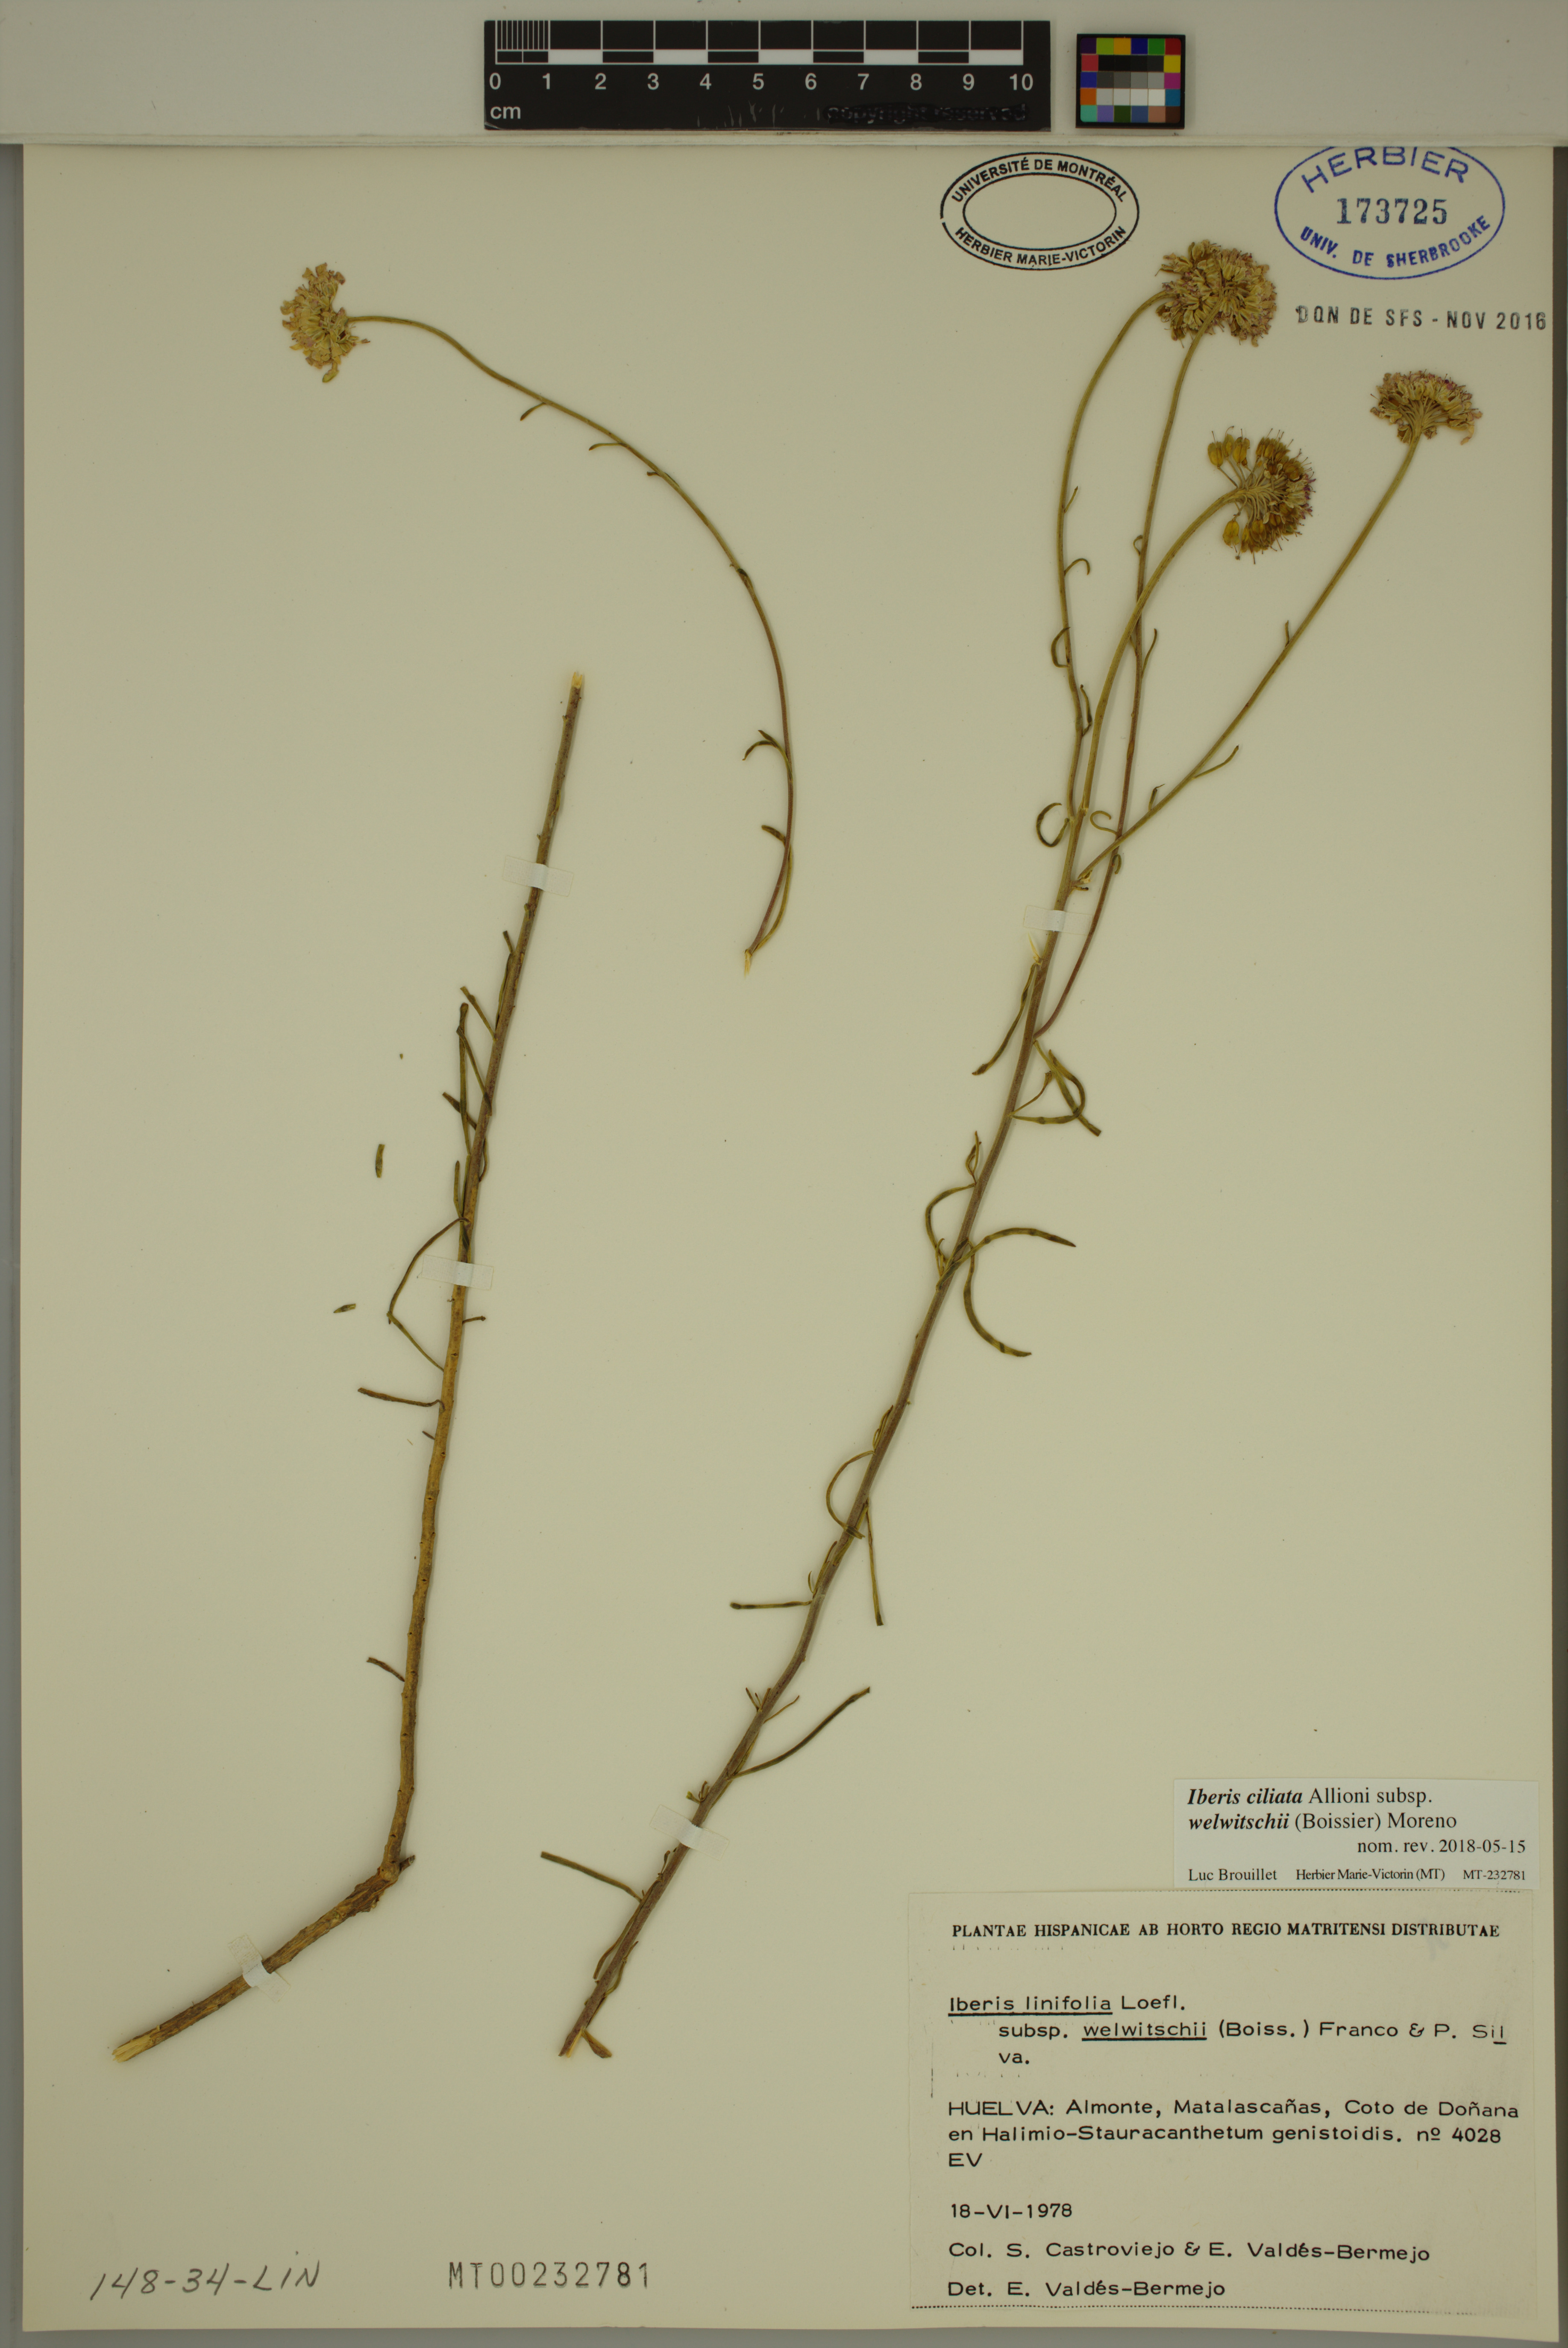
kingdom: Plantae
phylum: Tracheophyta
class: Magnoliopsida
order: Brassicales
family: Brassicaceae
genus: Iberis
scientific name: Iberis ciliata
